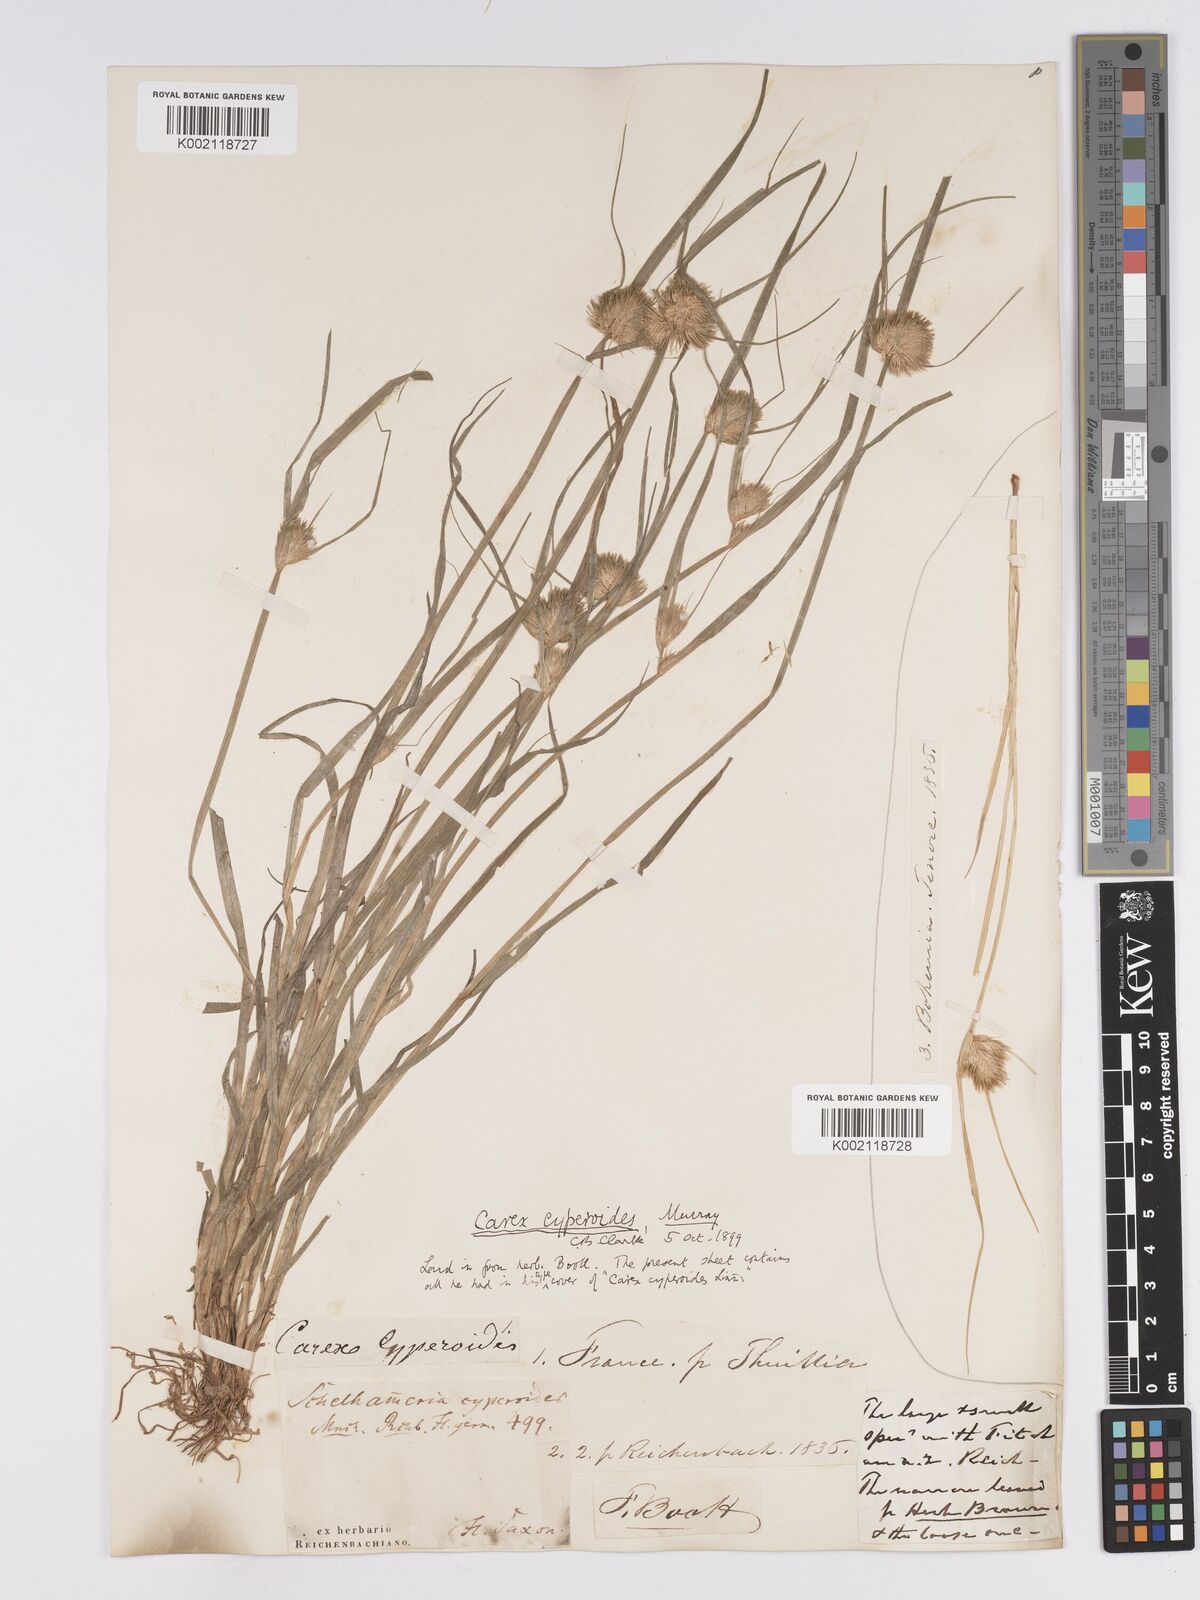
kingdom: Plantae
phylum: Tracheophyta
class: Liliopsida
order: Poales
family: Cyperaceae
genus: Carex
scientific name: Carex bohemica
